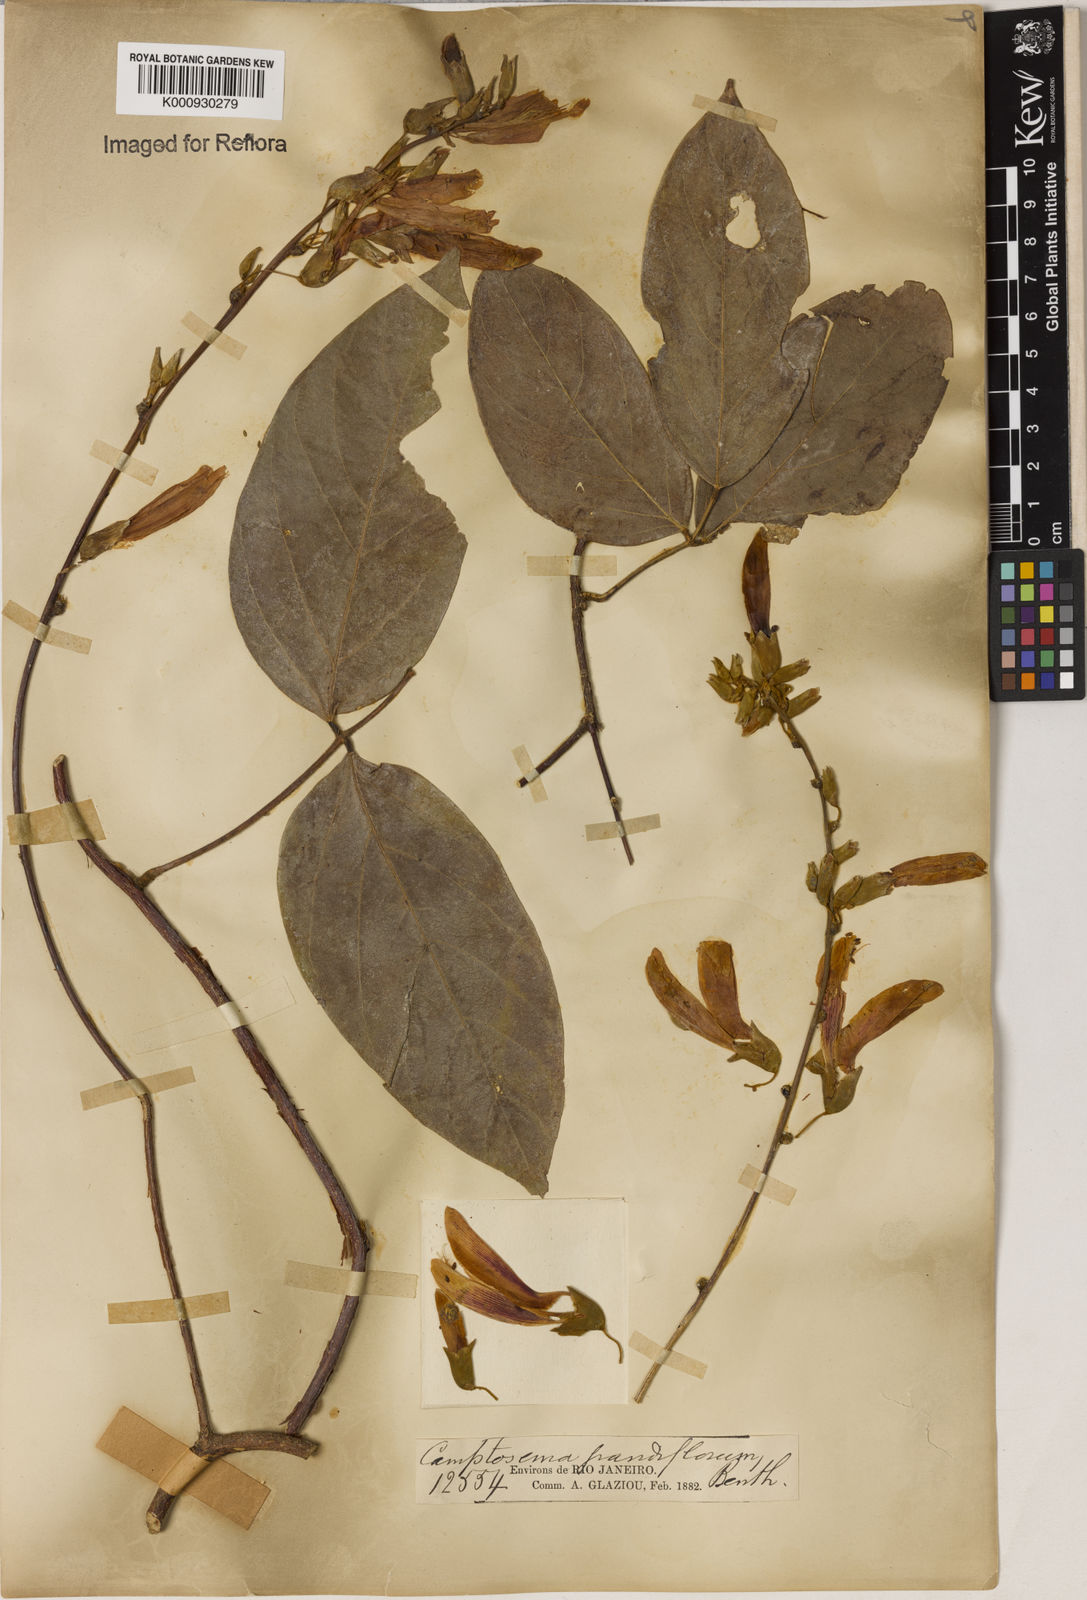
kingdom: Plantae
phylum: Tracheophyta
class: Magnoliopsida
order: Fabales
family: Fabaceae
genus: Camptosema
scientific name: Camptosema spectabile
